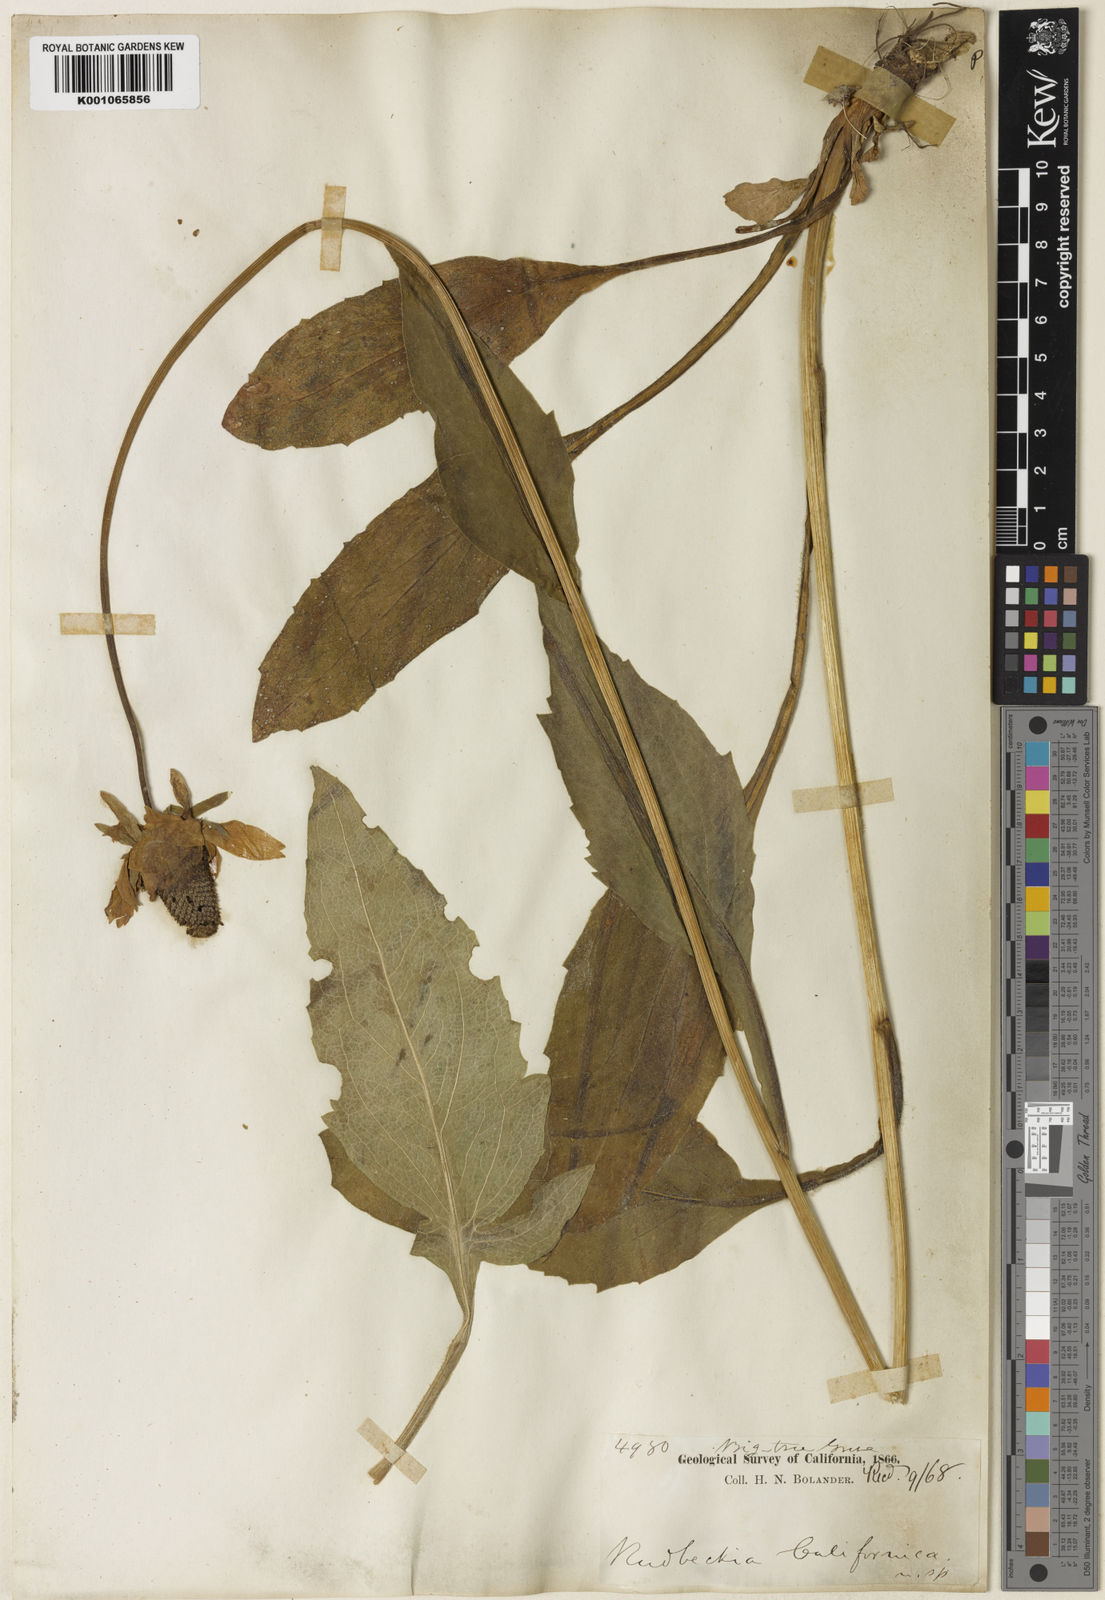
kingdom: Plantae
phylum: Tracheophyta
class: Magnoliopsida
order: Asterales
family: Asteraceae
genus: Rudbeckia
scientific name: Rudbeckia californica
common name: California coneflower
